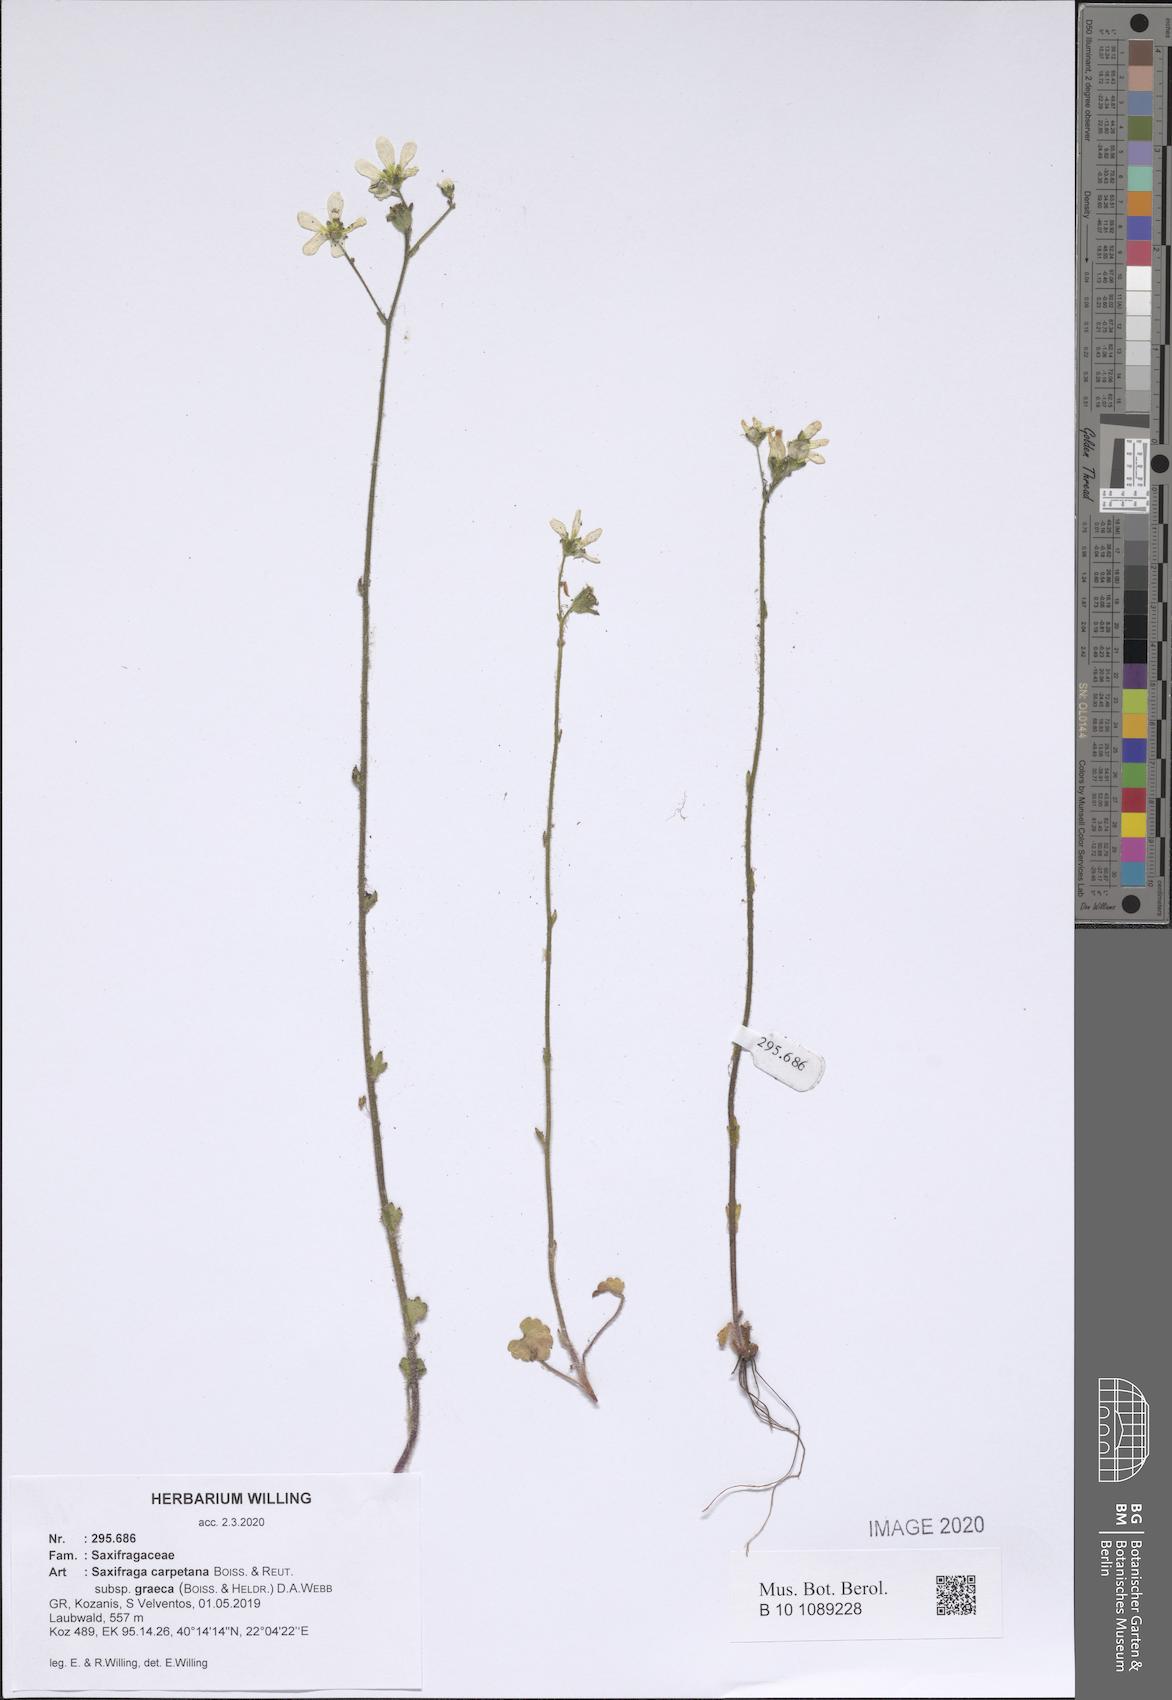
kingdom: Plantae
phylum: Tracheophyta
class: Magnoliopsida
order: Saxifragales
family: Saxifragaceae
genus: Saxifraga
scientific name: Saxifraga carpetana
